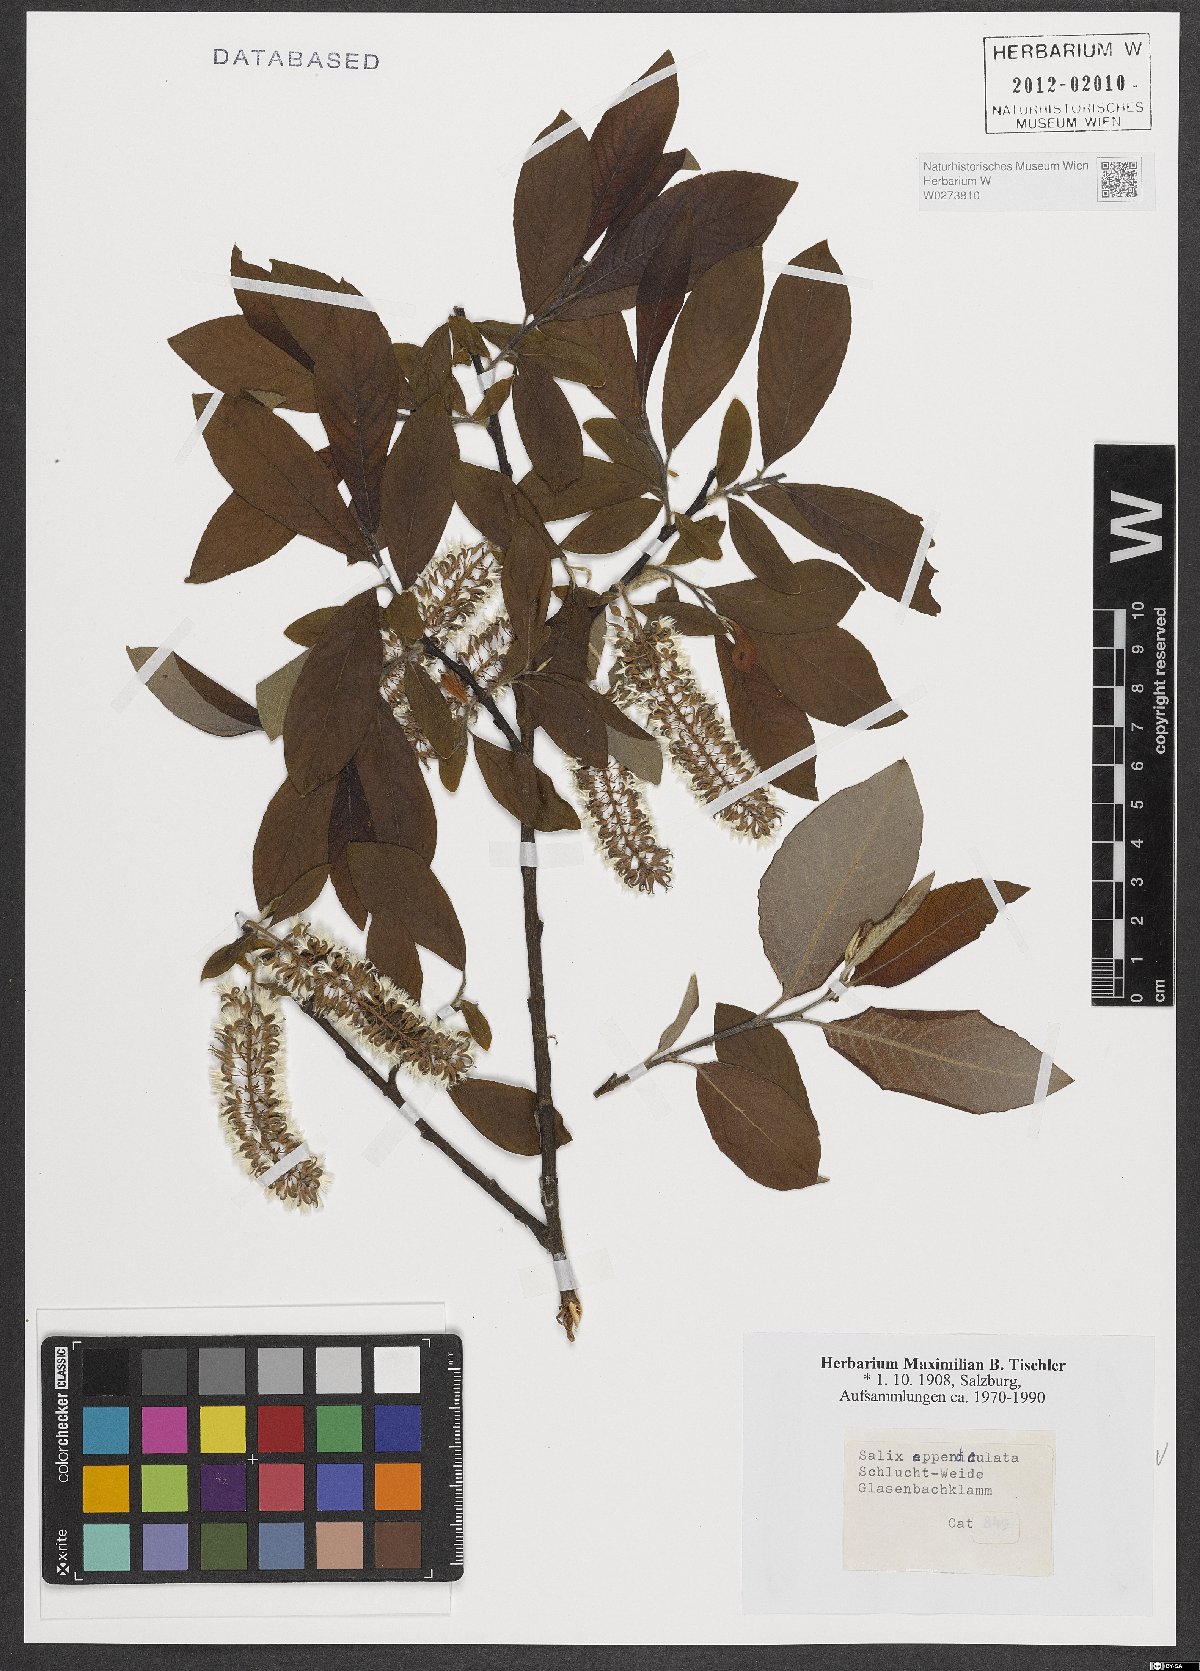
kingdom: Plantae
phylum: Tracheophyta
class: Magnoliopsida
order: Malpighiales
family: Salicaceae
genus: Salix
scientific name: Salix appendiculata
